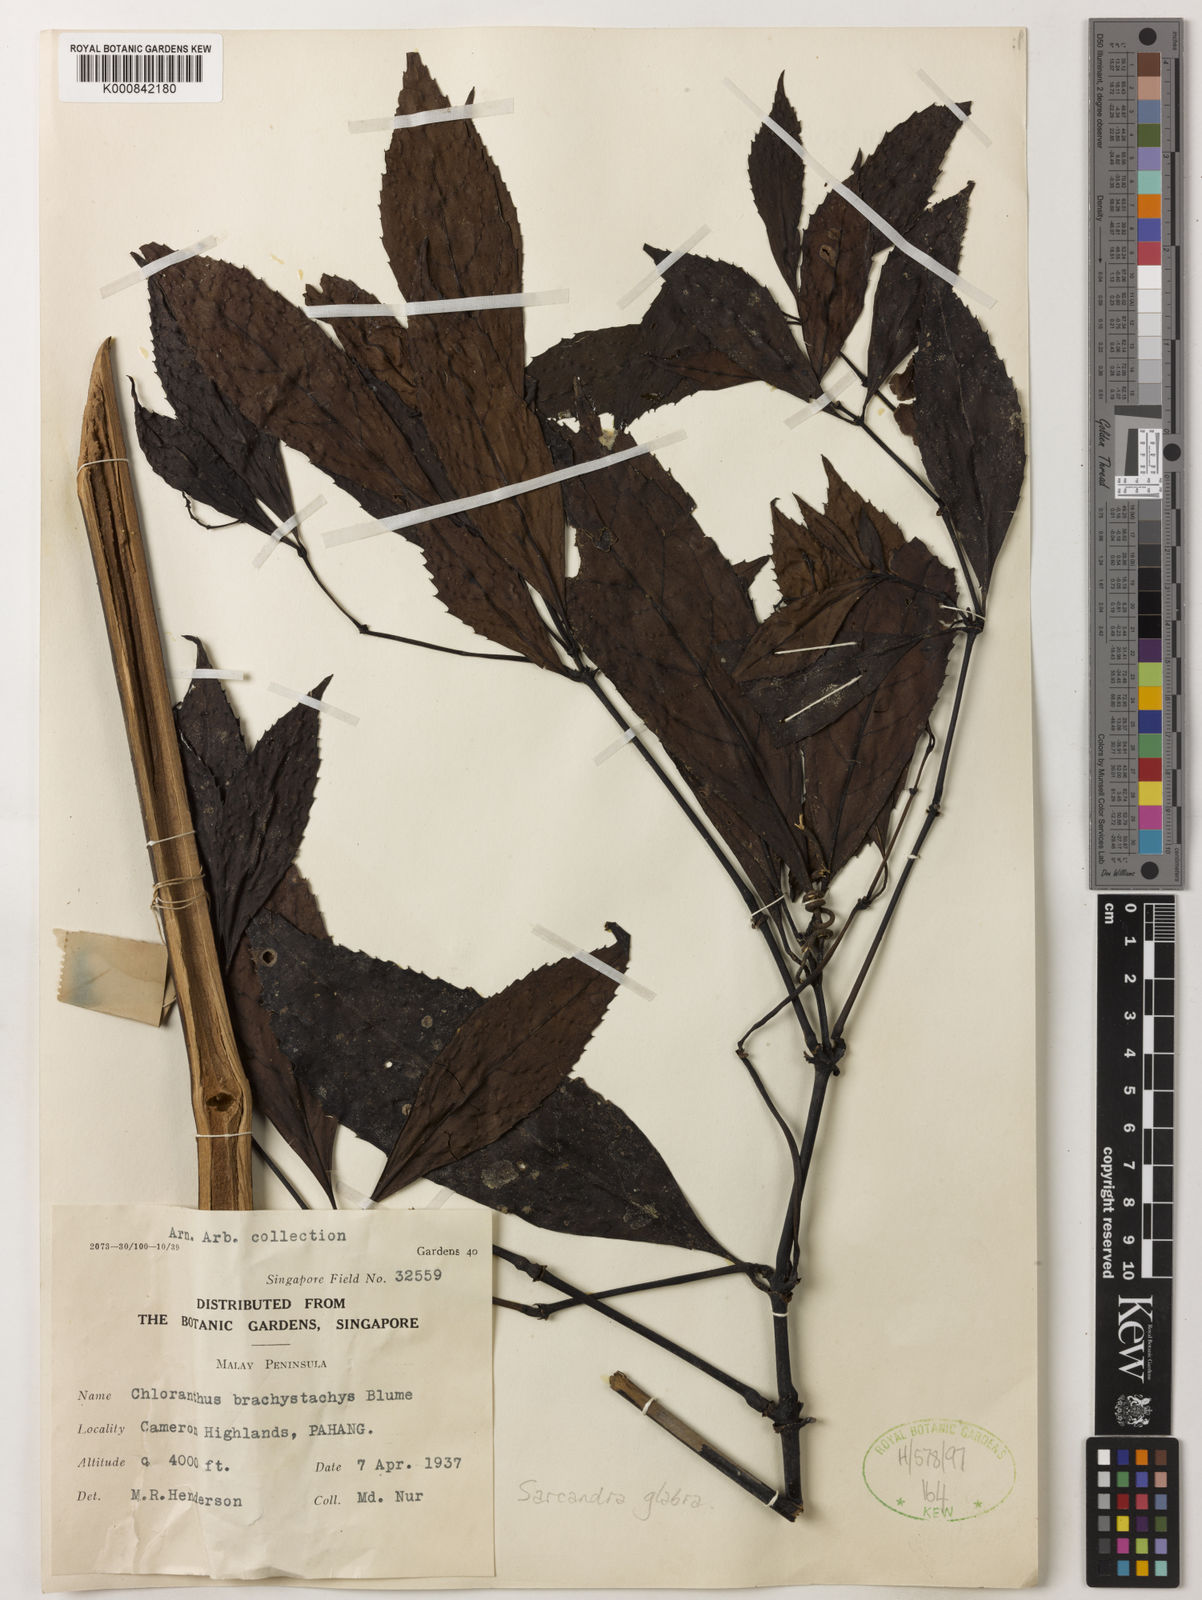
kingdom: Plantae
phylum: Tracheophyta
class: Magnoliopsida
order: Chloranthales
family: Chloranthaceae
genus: Sarcandra
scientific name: Sarcandra glabra
